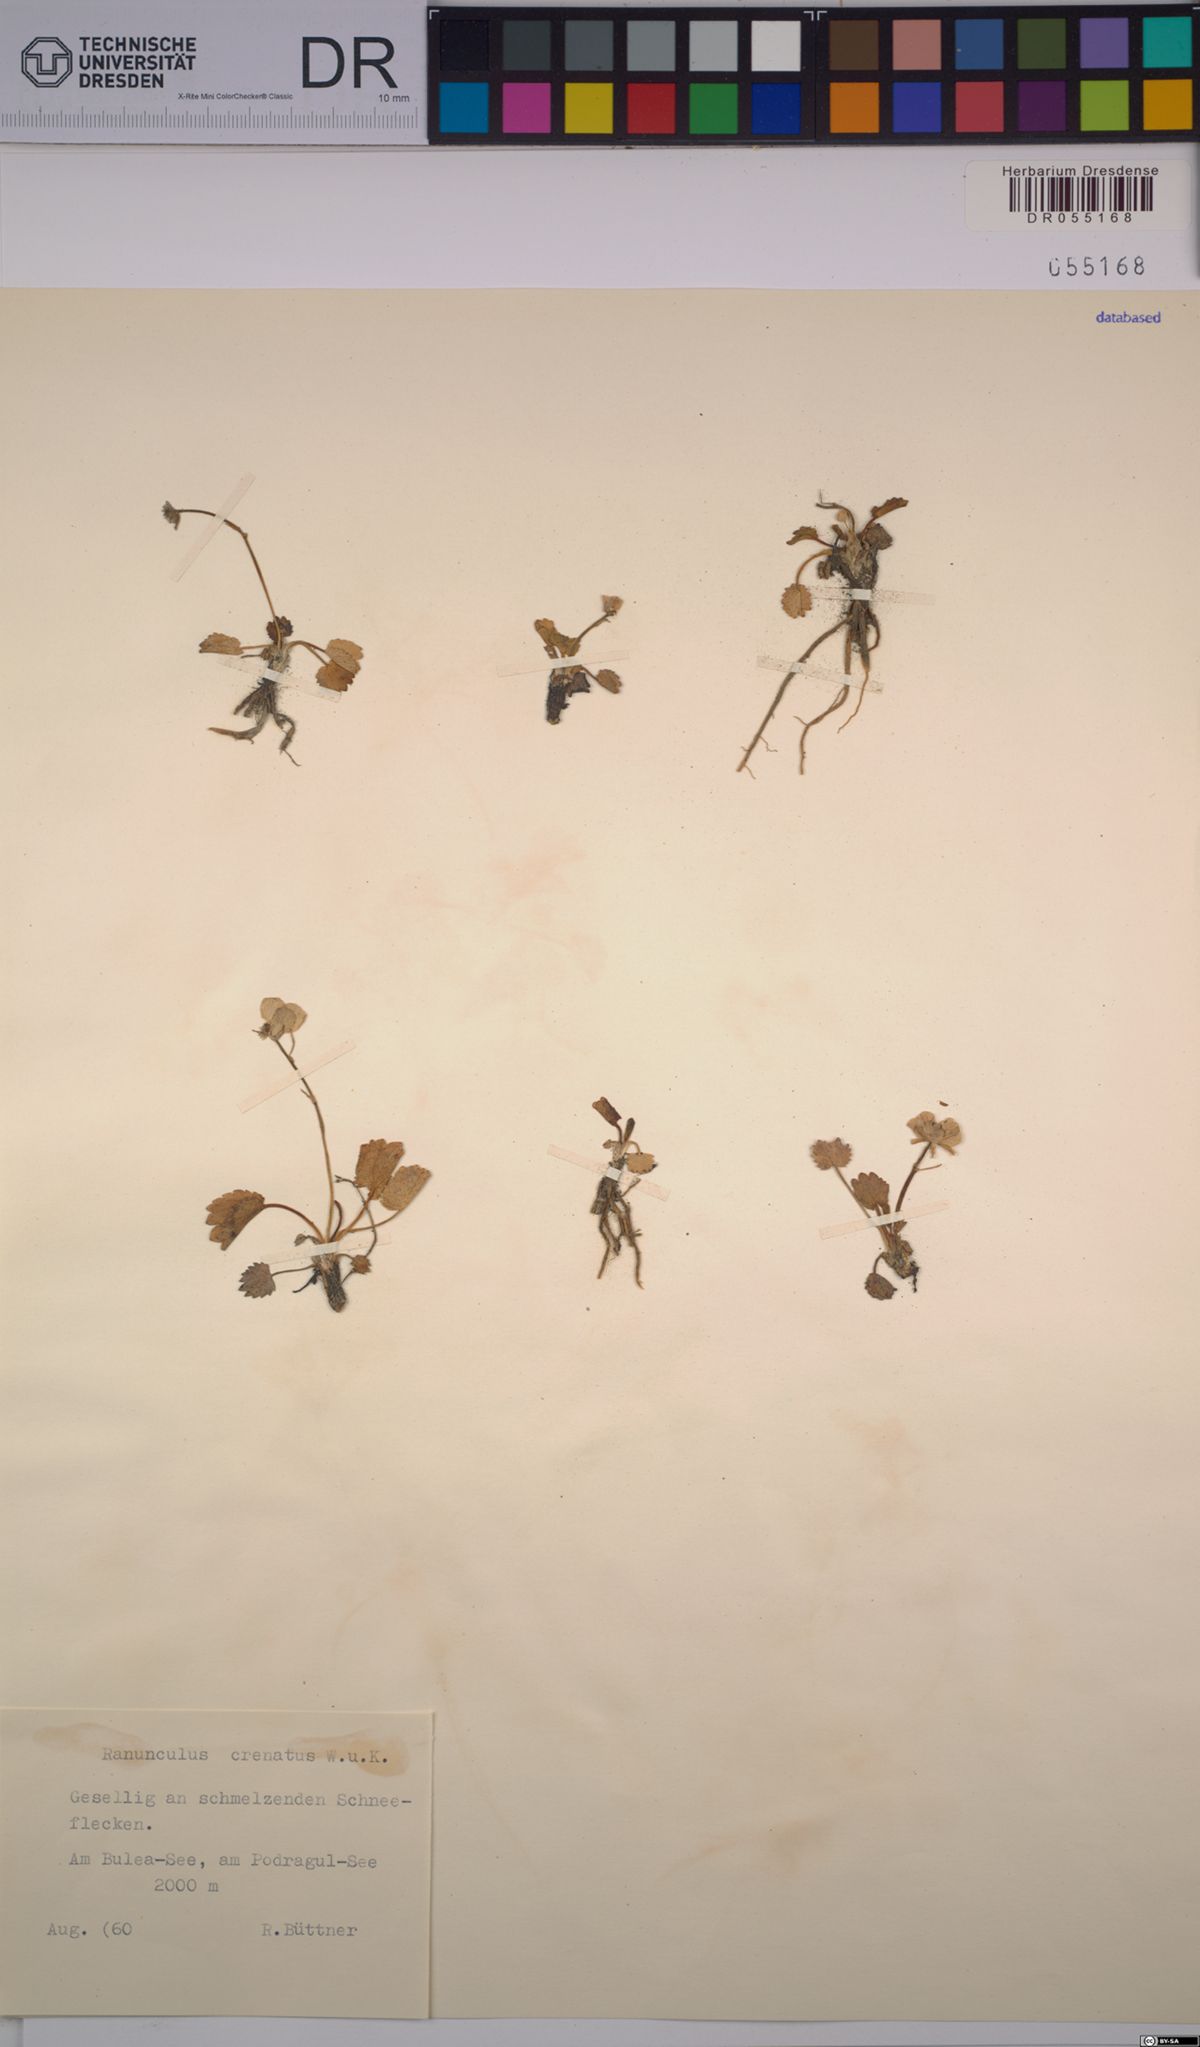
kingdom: Plantae
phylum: Tracheophyta
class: Magnoliopsida
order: Ranunculales
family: Ranunculaceae
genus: Ranunculus
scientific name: Ranunculus crenatus
